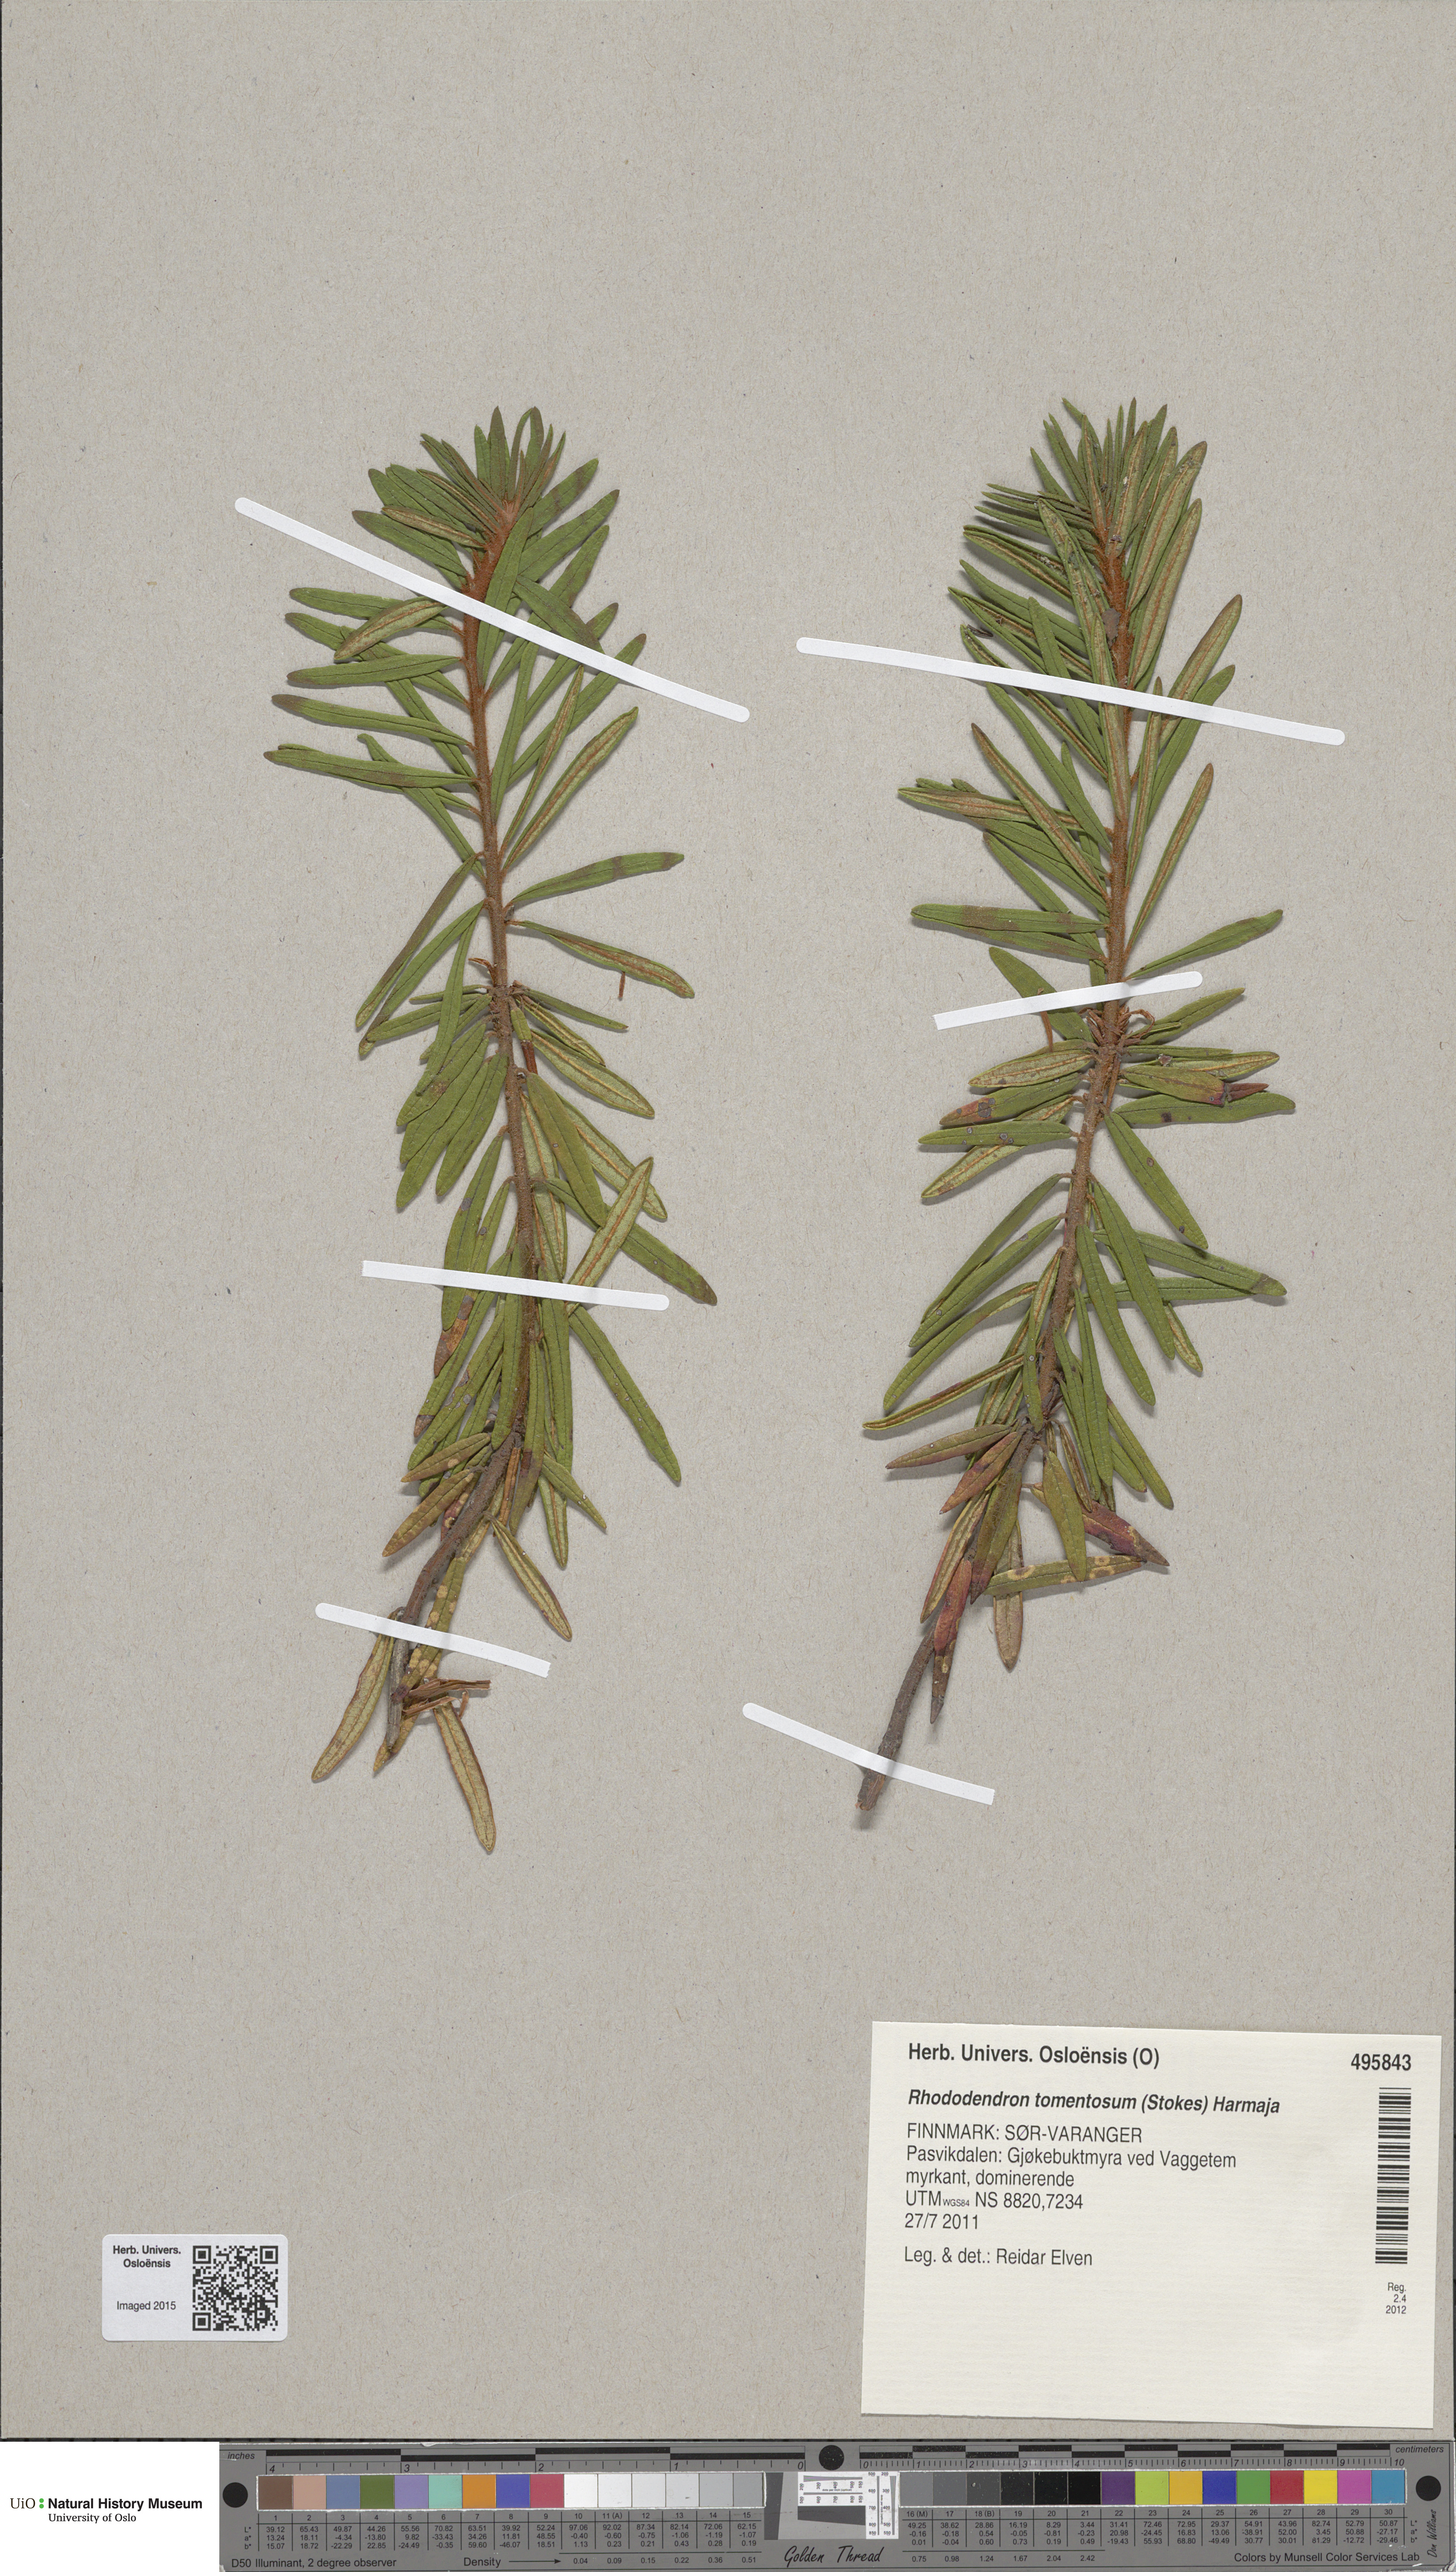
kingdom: Plantae
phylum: Tracheophyta
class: Magnoliopsida
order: Ericales
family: Ericaceae
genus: Rhododendron
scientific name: Rhododendron tomentosum
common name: Marsh labrador tea
